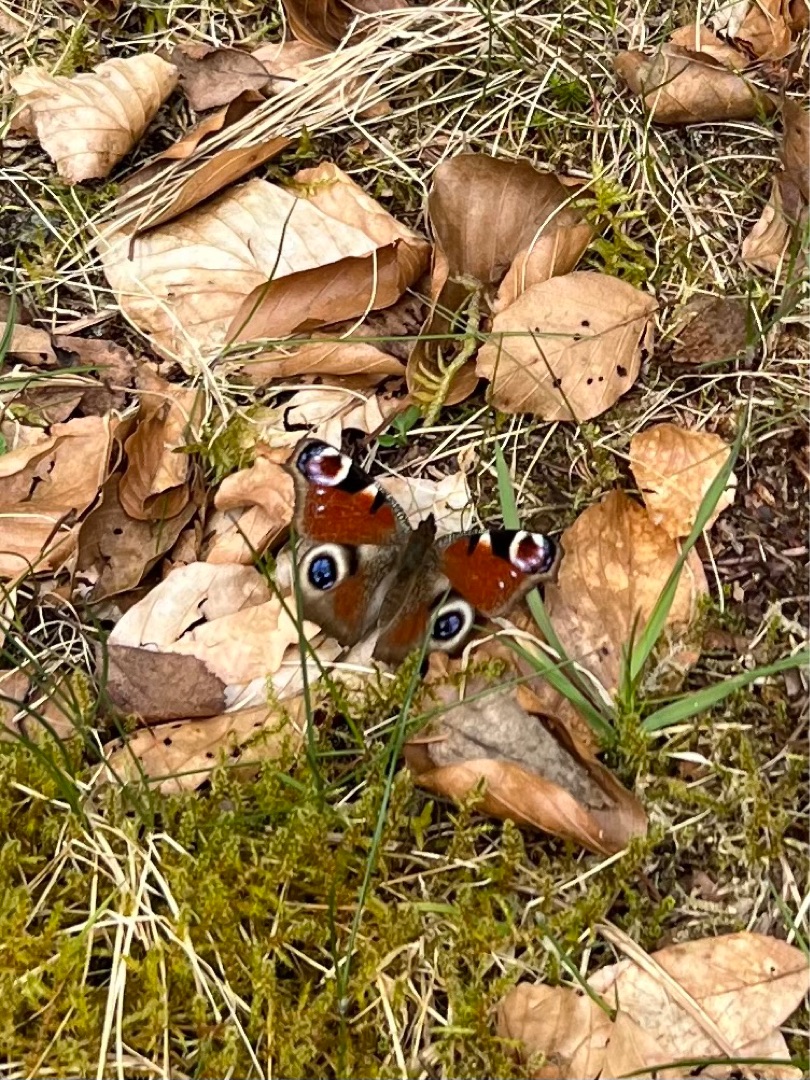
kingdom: Animalia
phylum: Arthropoda
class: Insecta
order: Lepidoptera
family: Nymphalidae
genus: Aglais
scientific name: Aglais io
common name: Dagpåfugleøje
